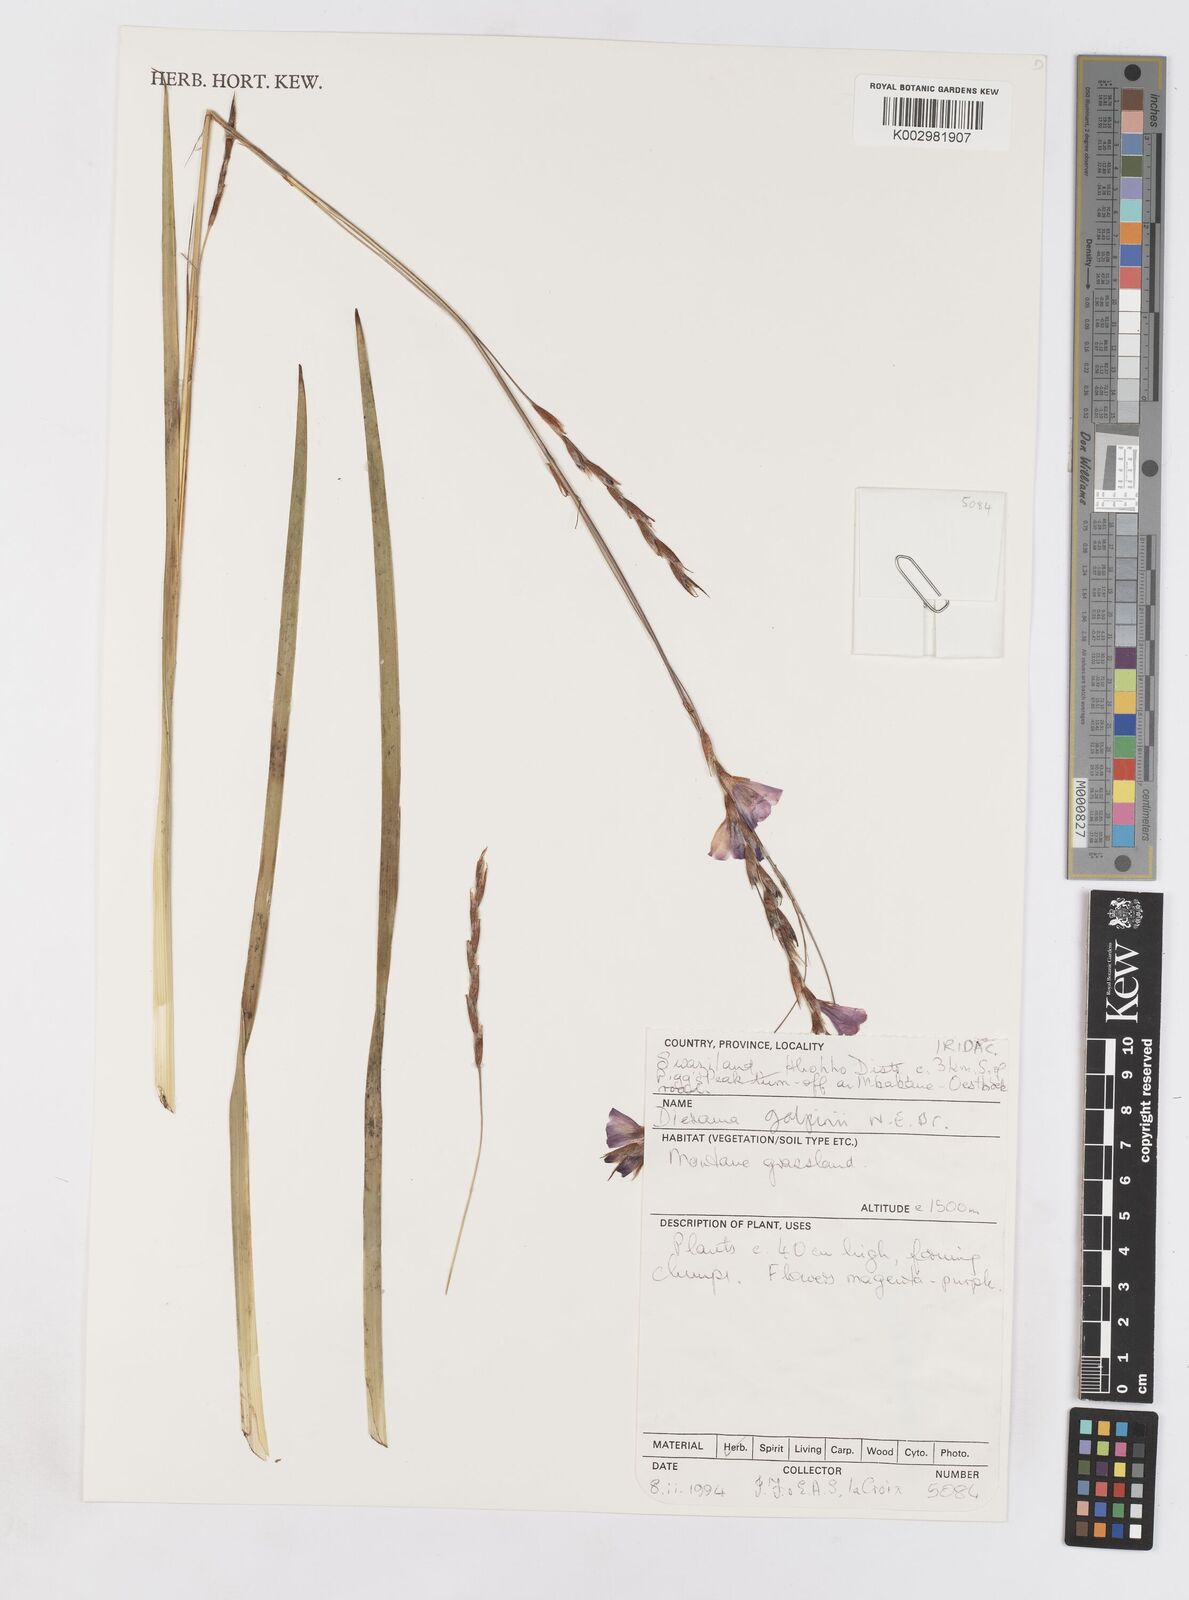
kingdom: Plantae
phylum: Tracheophyta
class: Liliopsida
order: Asparagales
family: Iridaceae
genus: Dierama
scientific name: Dierama galpinii
